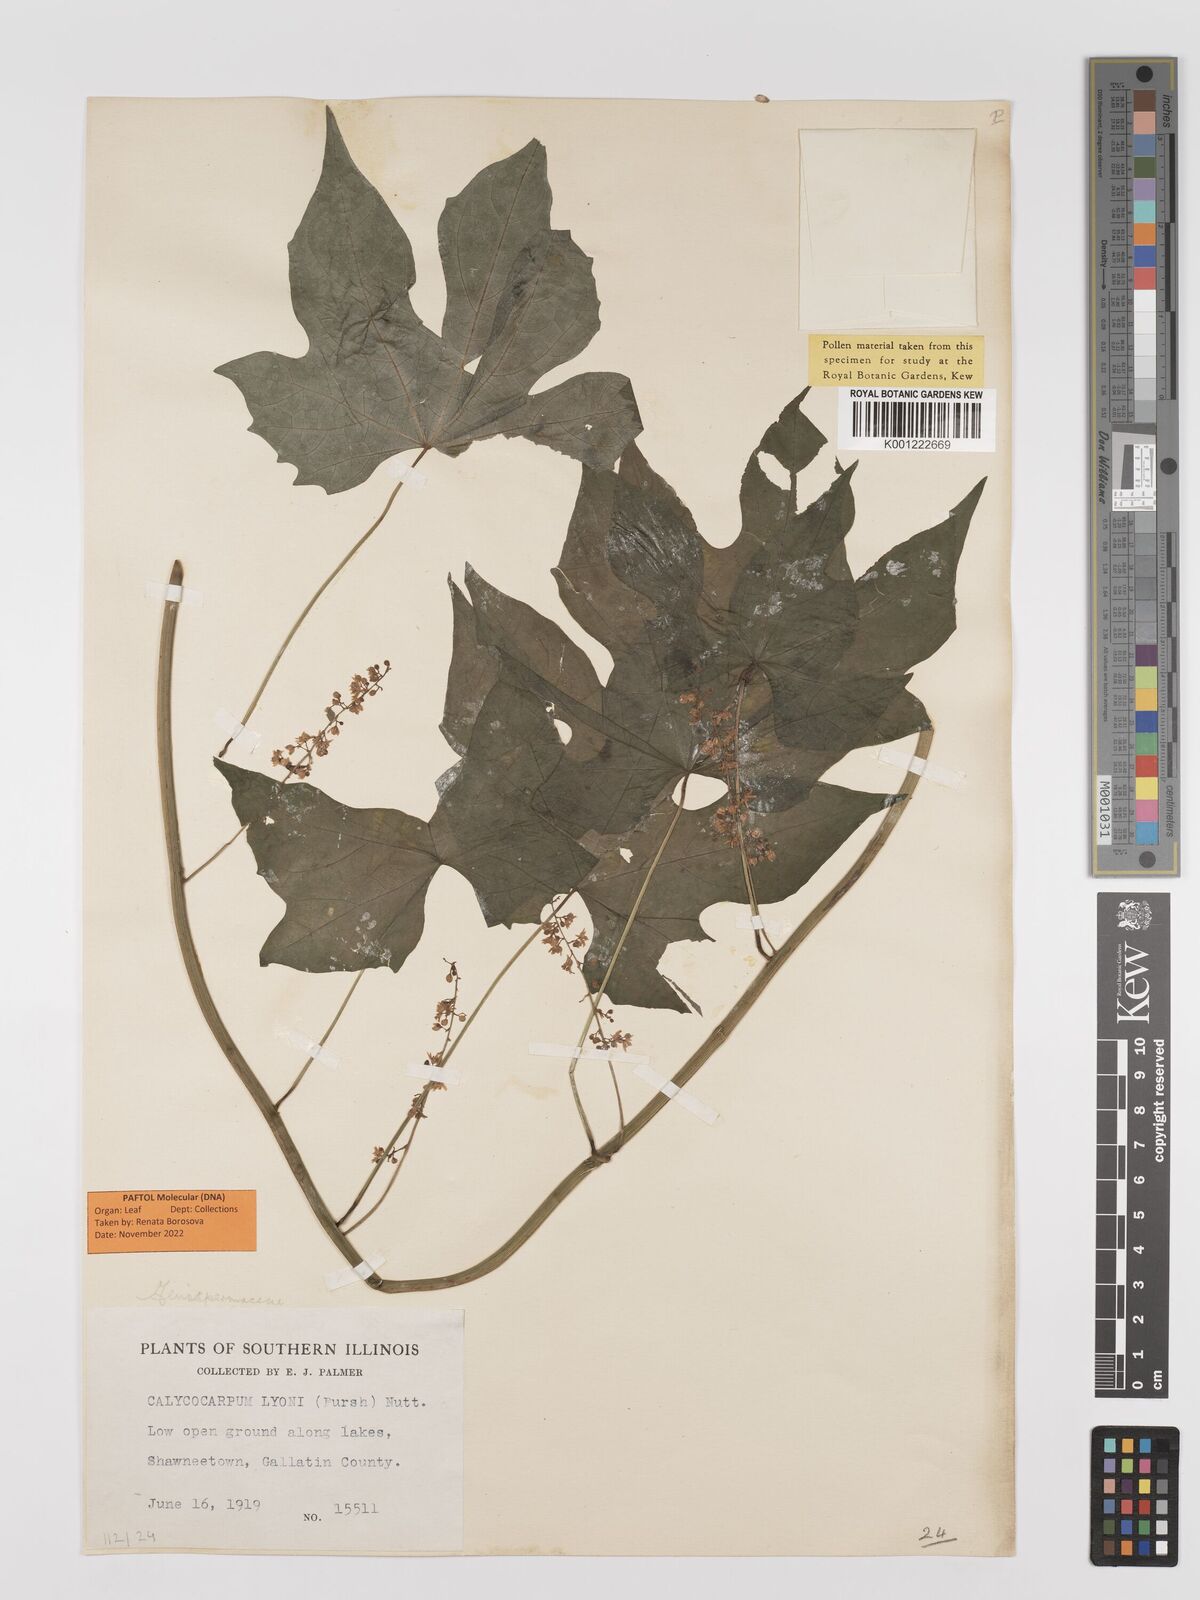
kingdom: Plantae
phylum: Tracheophyta
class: Magnoliopsida
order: Ranunculales
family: Menispermaceae
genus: Calycocarpum
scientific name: Calycocarpum lyonii
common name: Cupseed
